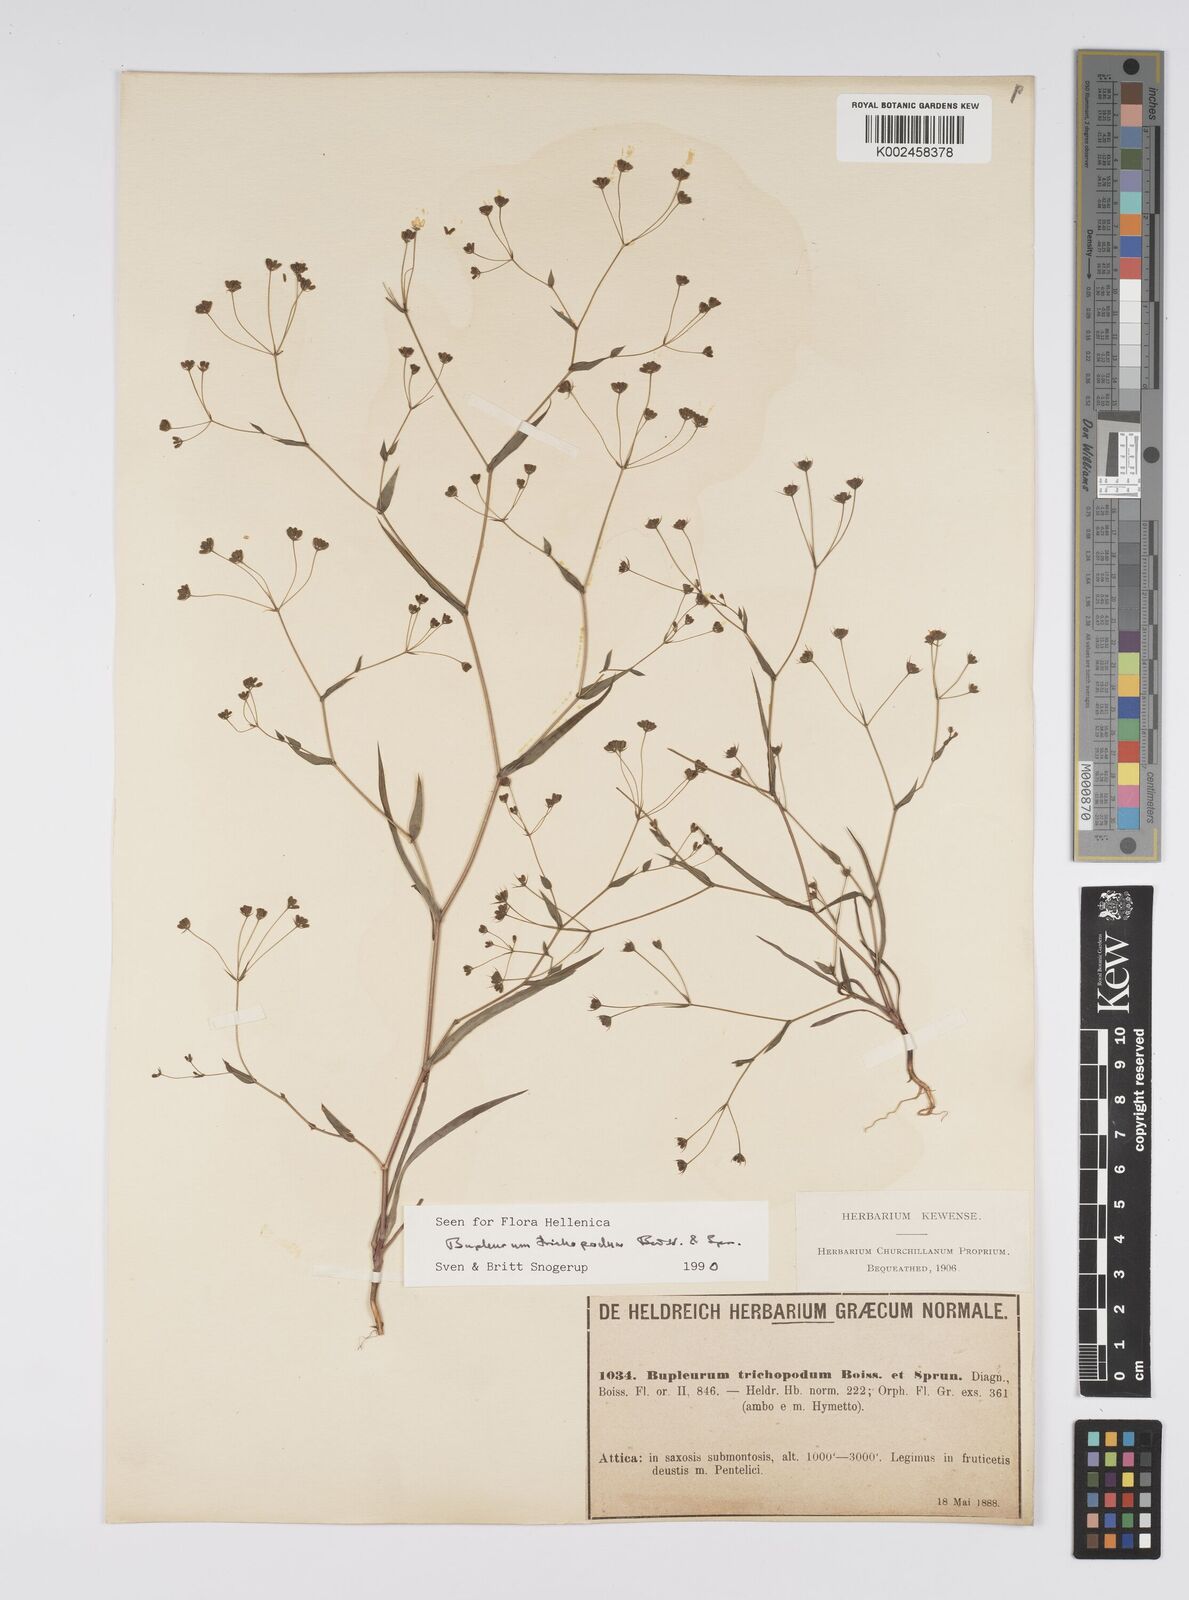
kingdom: Plantae
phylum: Tracheophyta
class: Magnoliopsida
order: Apiales
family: Apiaceae
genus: Bupleurum
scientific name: Bupleurum trichopodum
